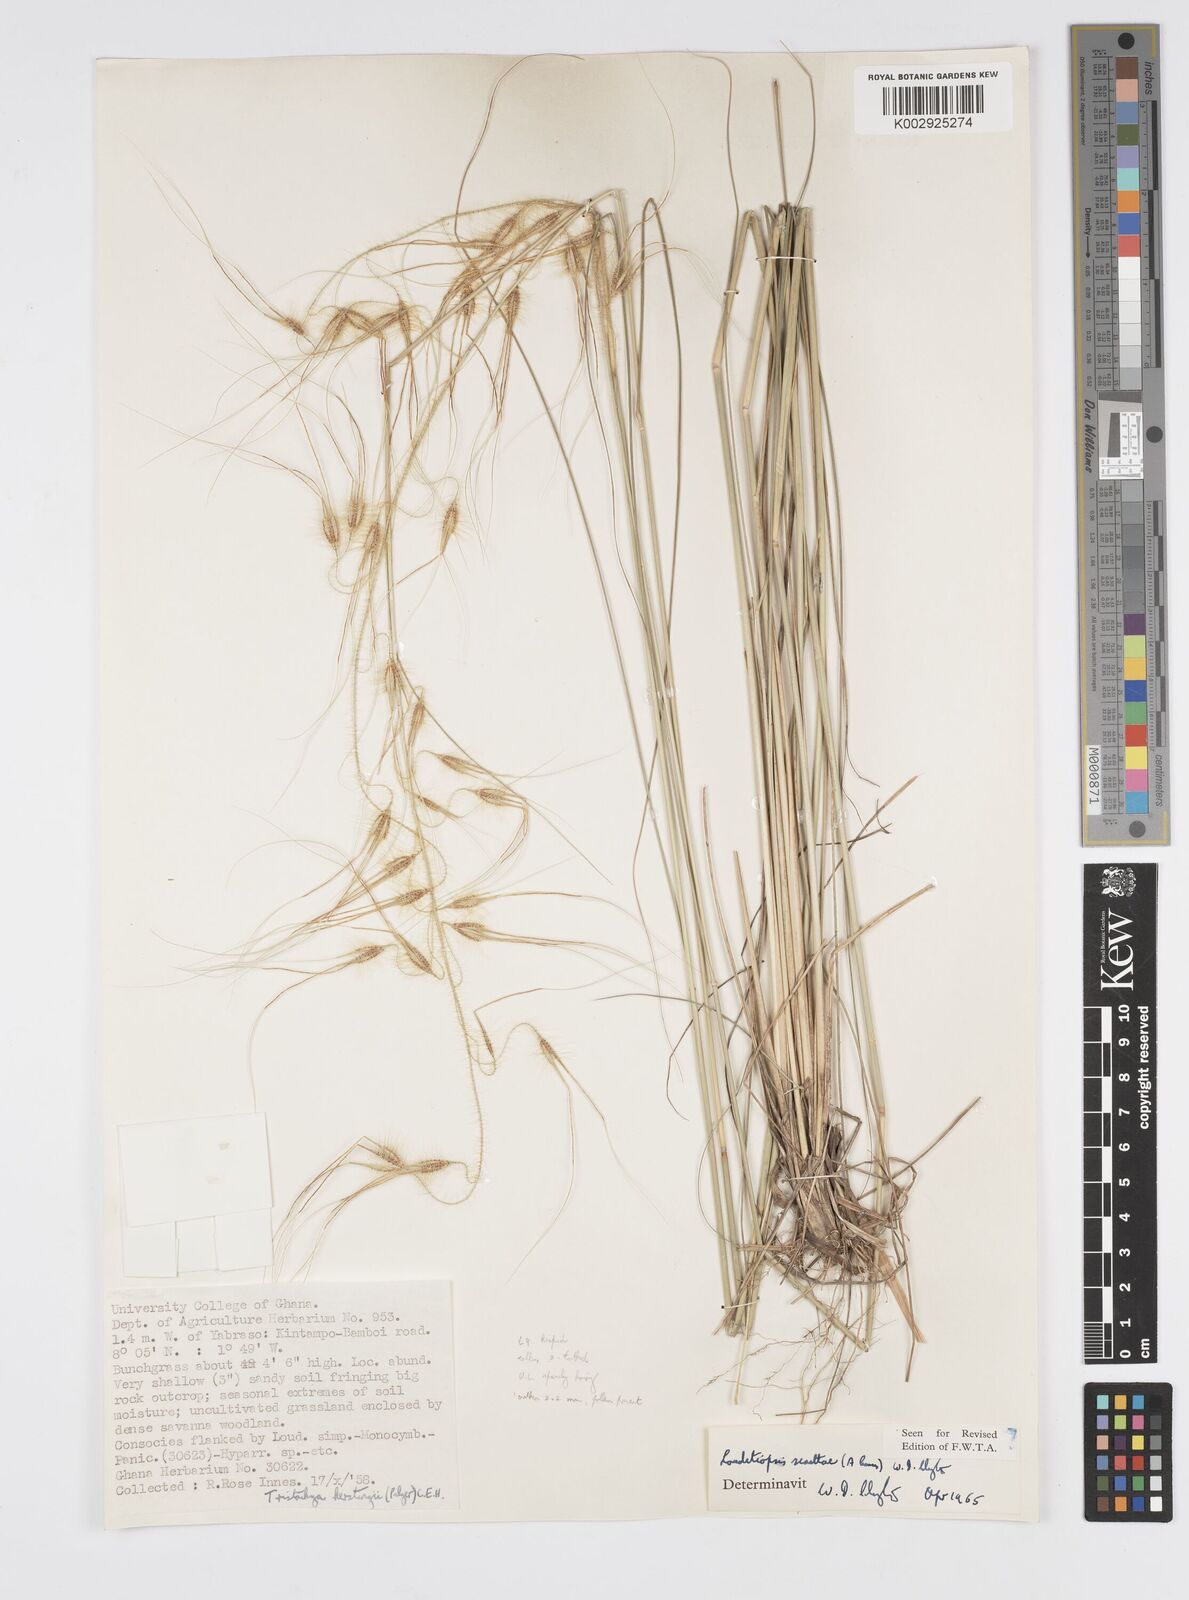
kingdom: Plantae
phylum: Tracheophyta
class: Liliopsida
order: Poales
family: Poaceae
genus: Loudetiopsis
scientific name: Loudetiopsis scaettae
